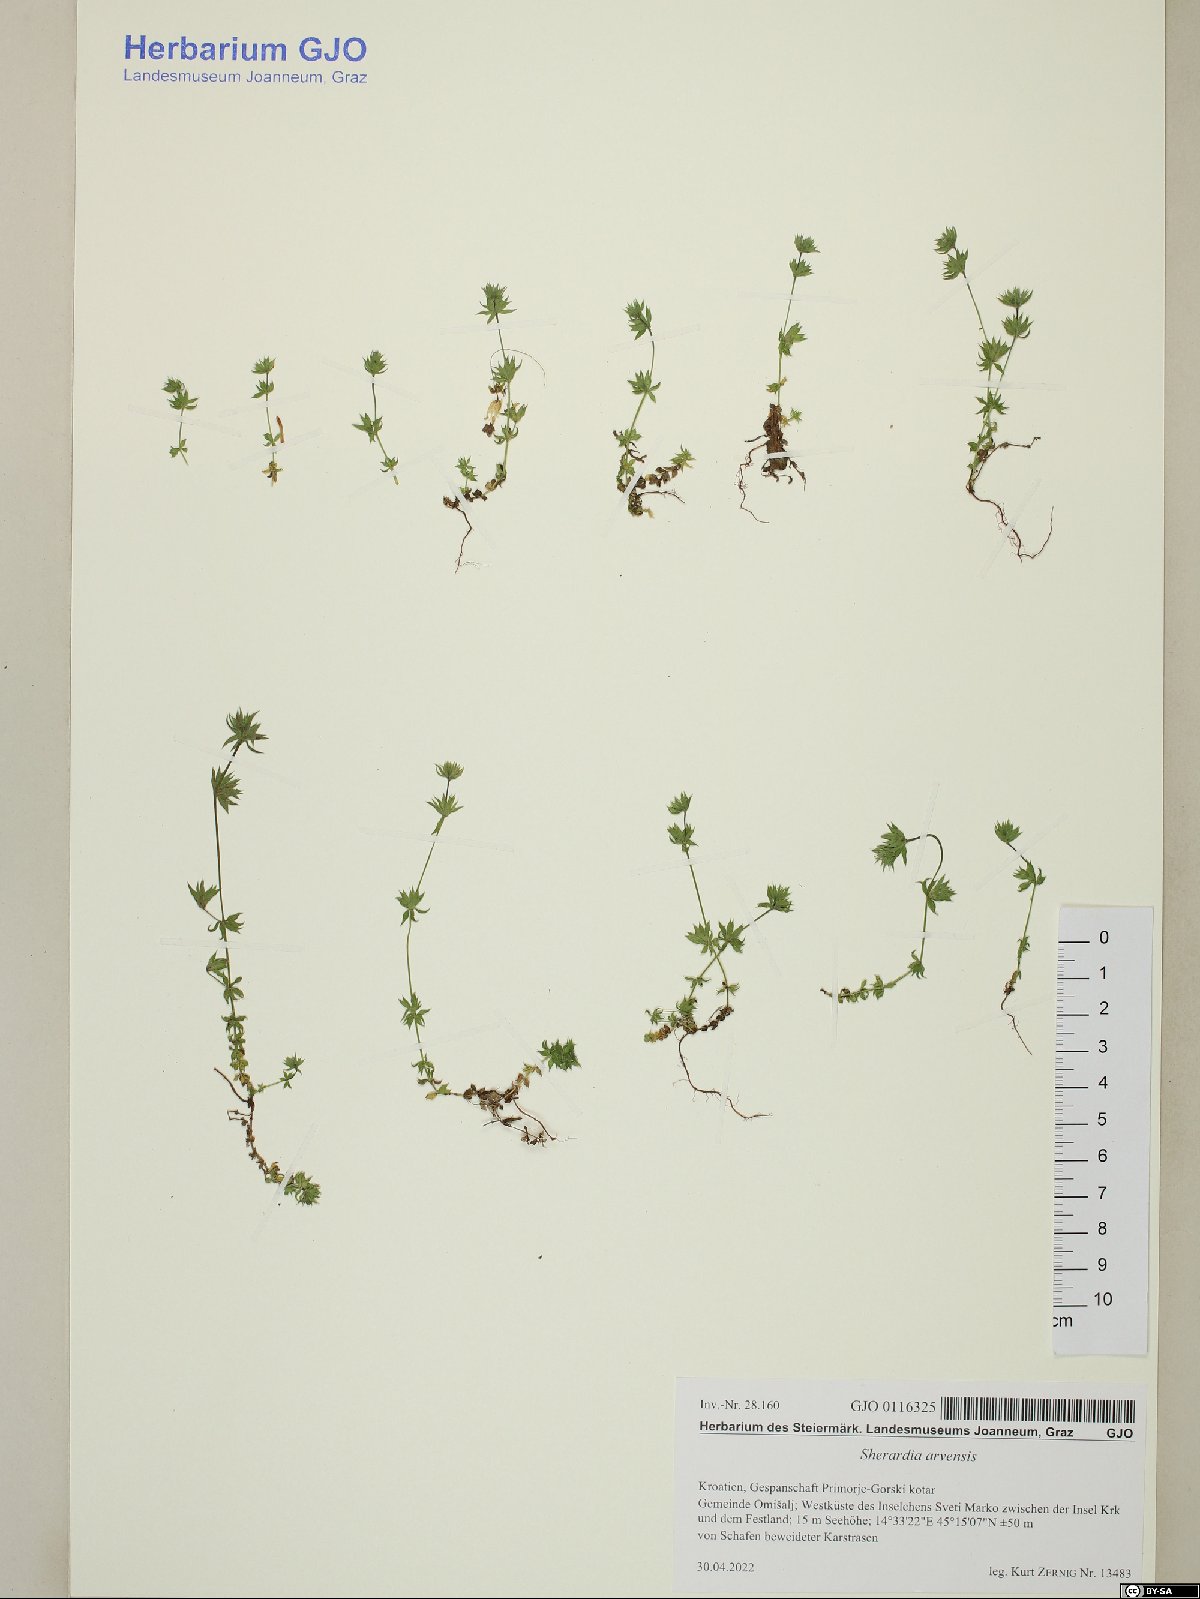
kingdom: Plantae
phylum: Tracheophyta
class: Magnoliopsida
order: Gentianales
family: Rubiaceae
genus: Sherardia
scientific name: Sherardia arvensis
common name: Field madder
